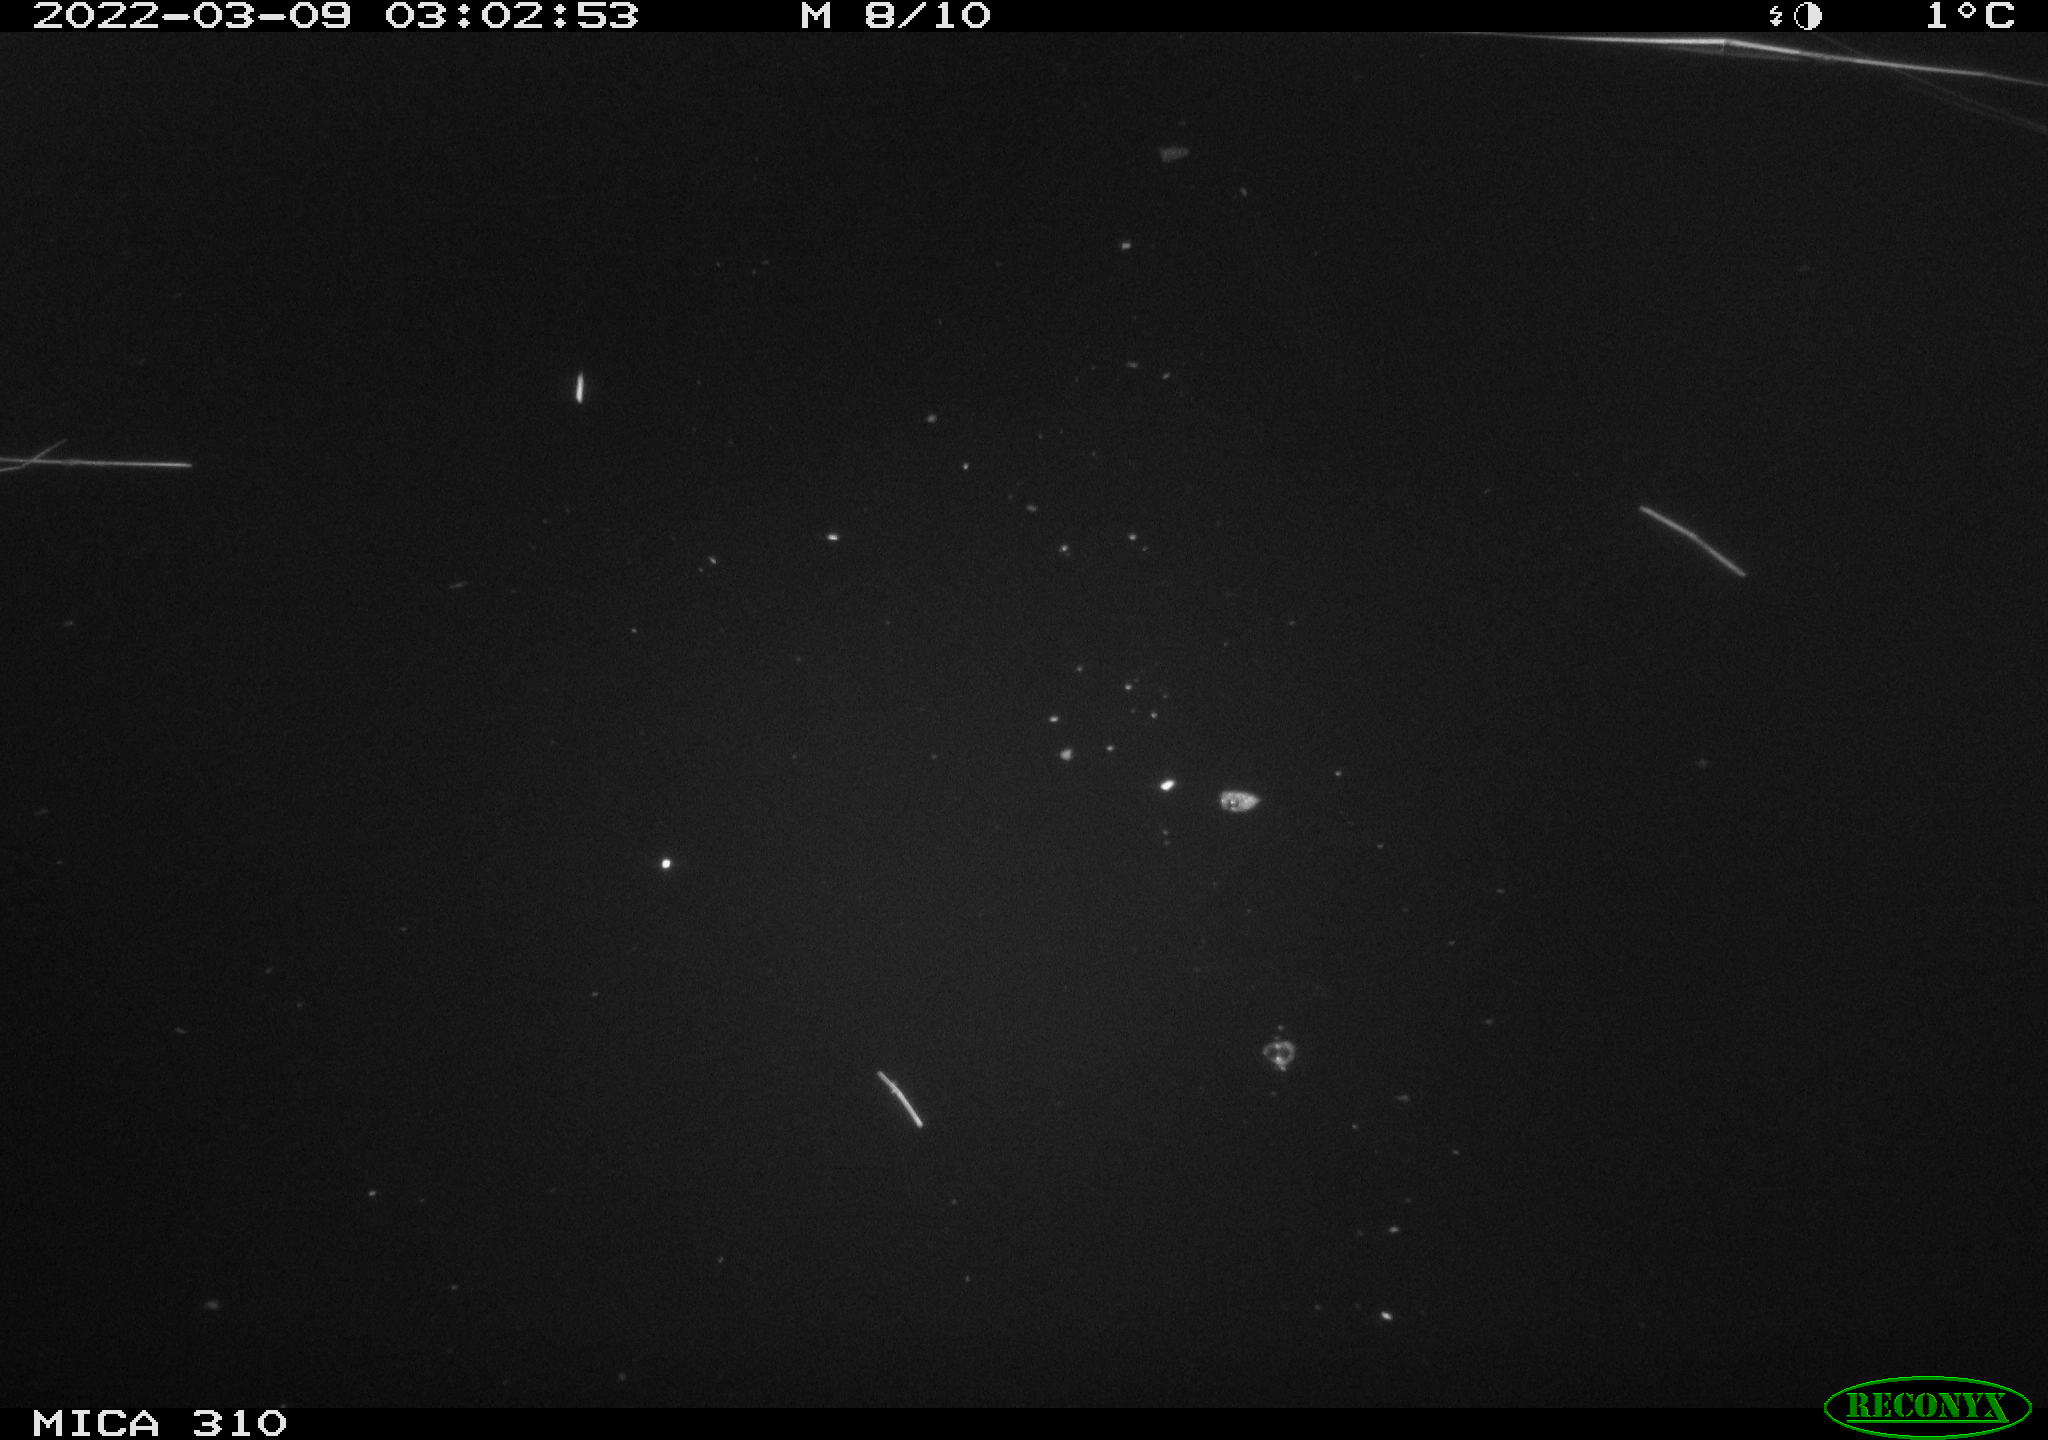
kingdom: Animalia
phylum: Chordata
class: Aves
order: Anseriformes
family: Anatidae
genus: Anas
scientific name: Anas platyrhynchos
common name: Mallard
